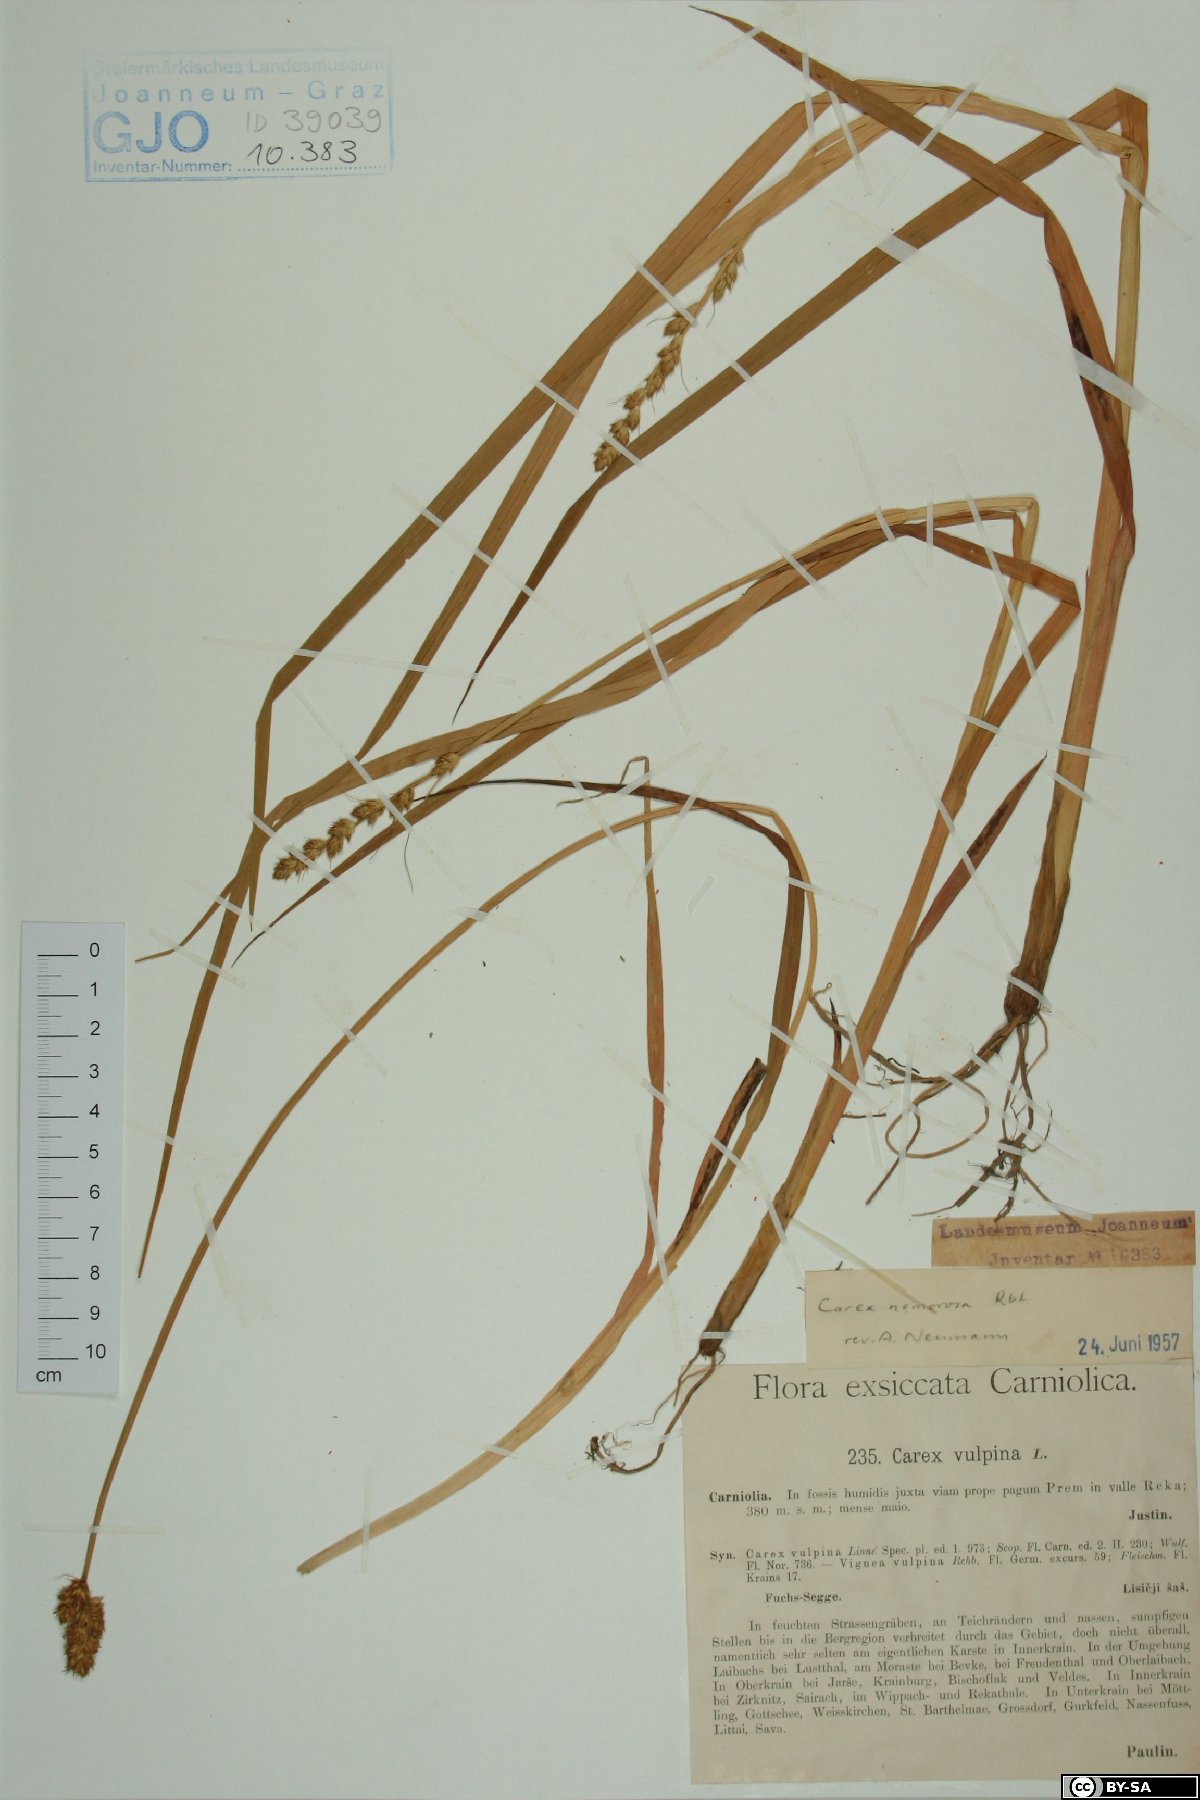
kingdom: Plantae
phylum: Tracheophyta
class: Liliopsida
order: Poales
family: Cyperaceae
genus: Carex
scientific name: Carex otrubae
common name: False fox-sedge
